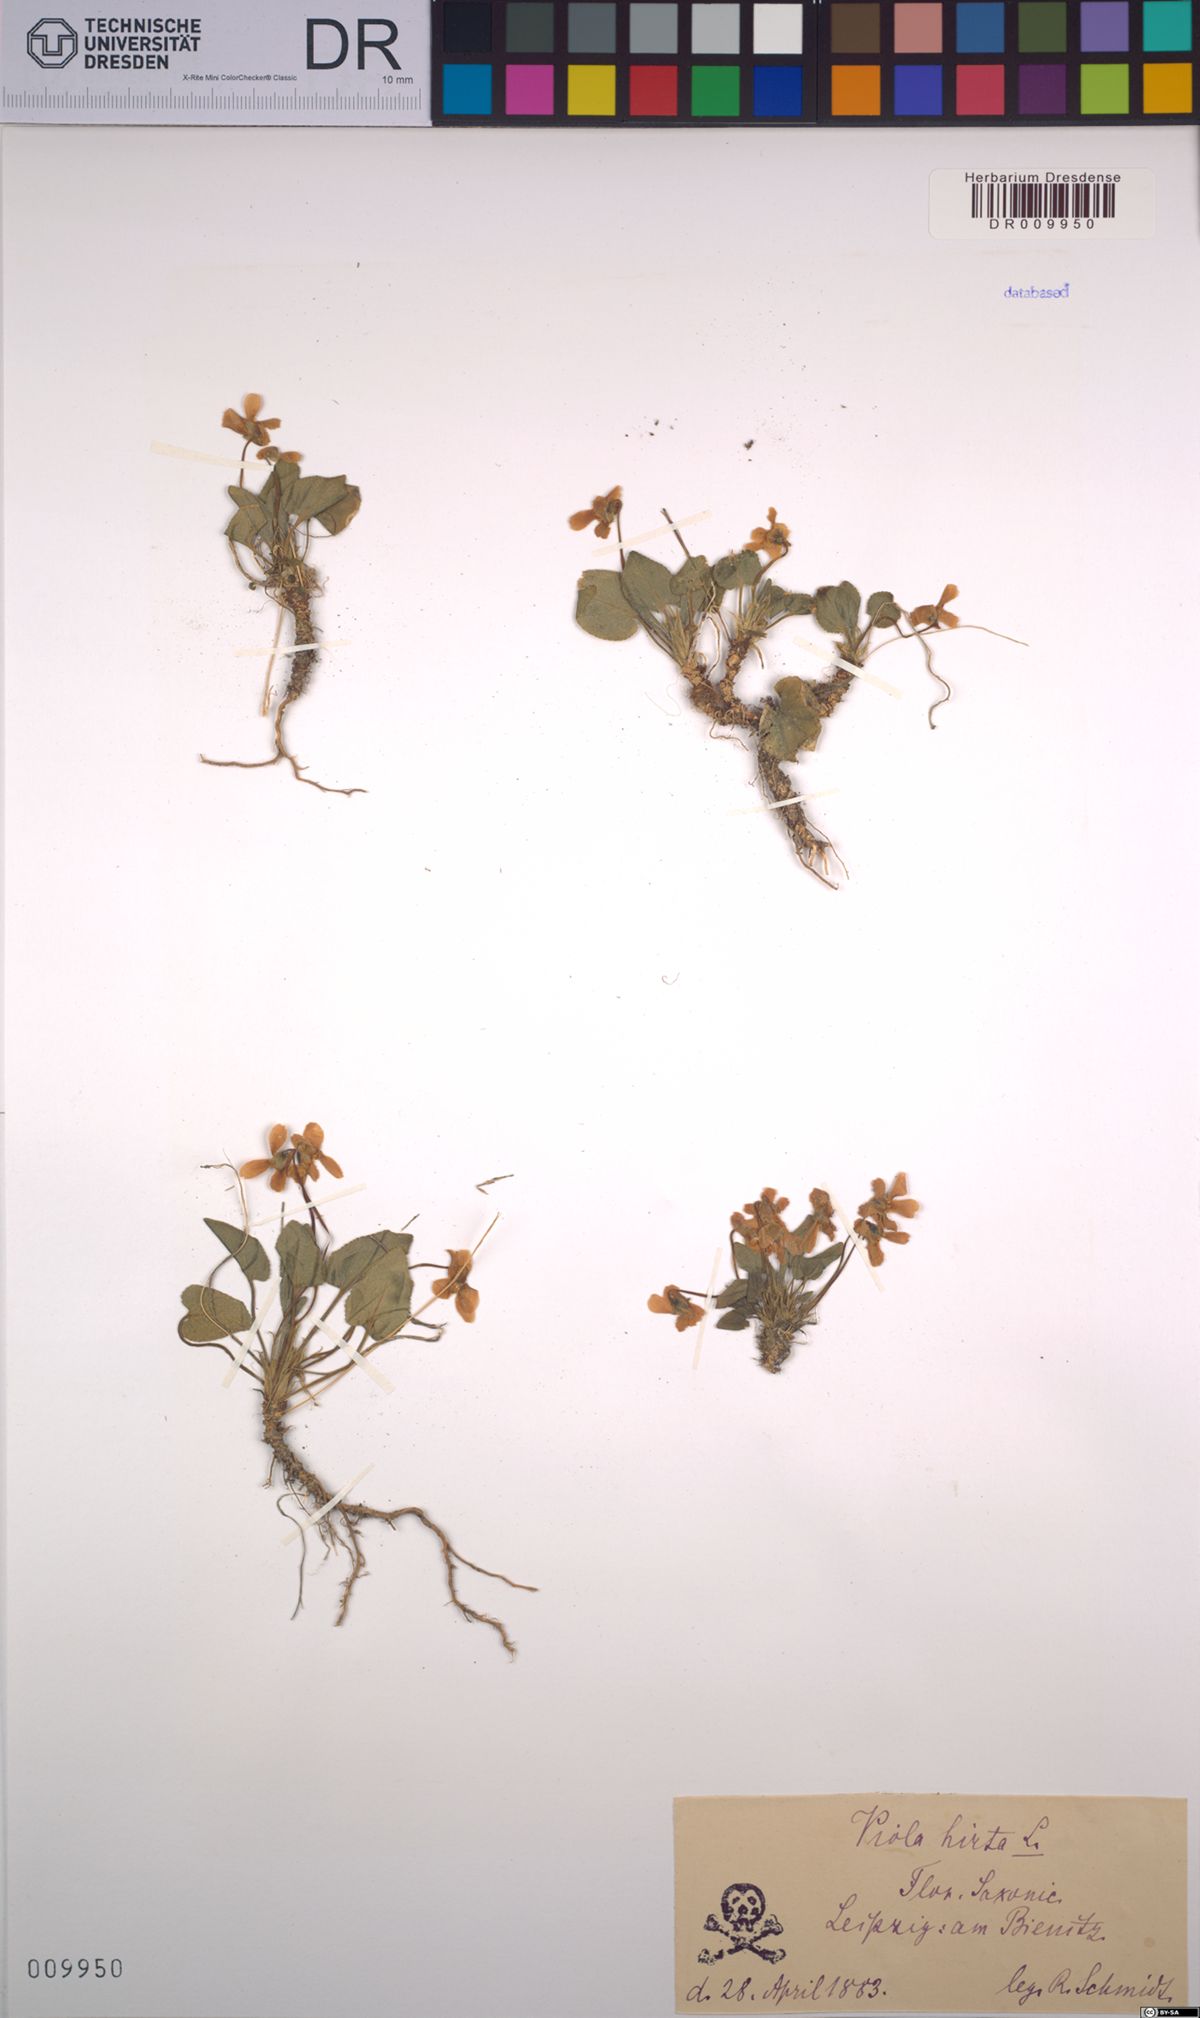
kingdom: Plantae
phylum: Tracheophyta
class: Magnoliopsida
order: Malpighiales
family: Violaceae
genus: Viola
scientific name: Viola hirta
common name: Hairy violet
